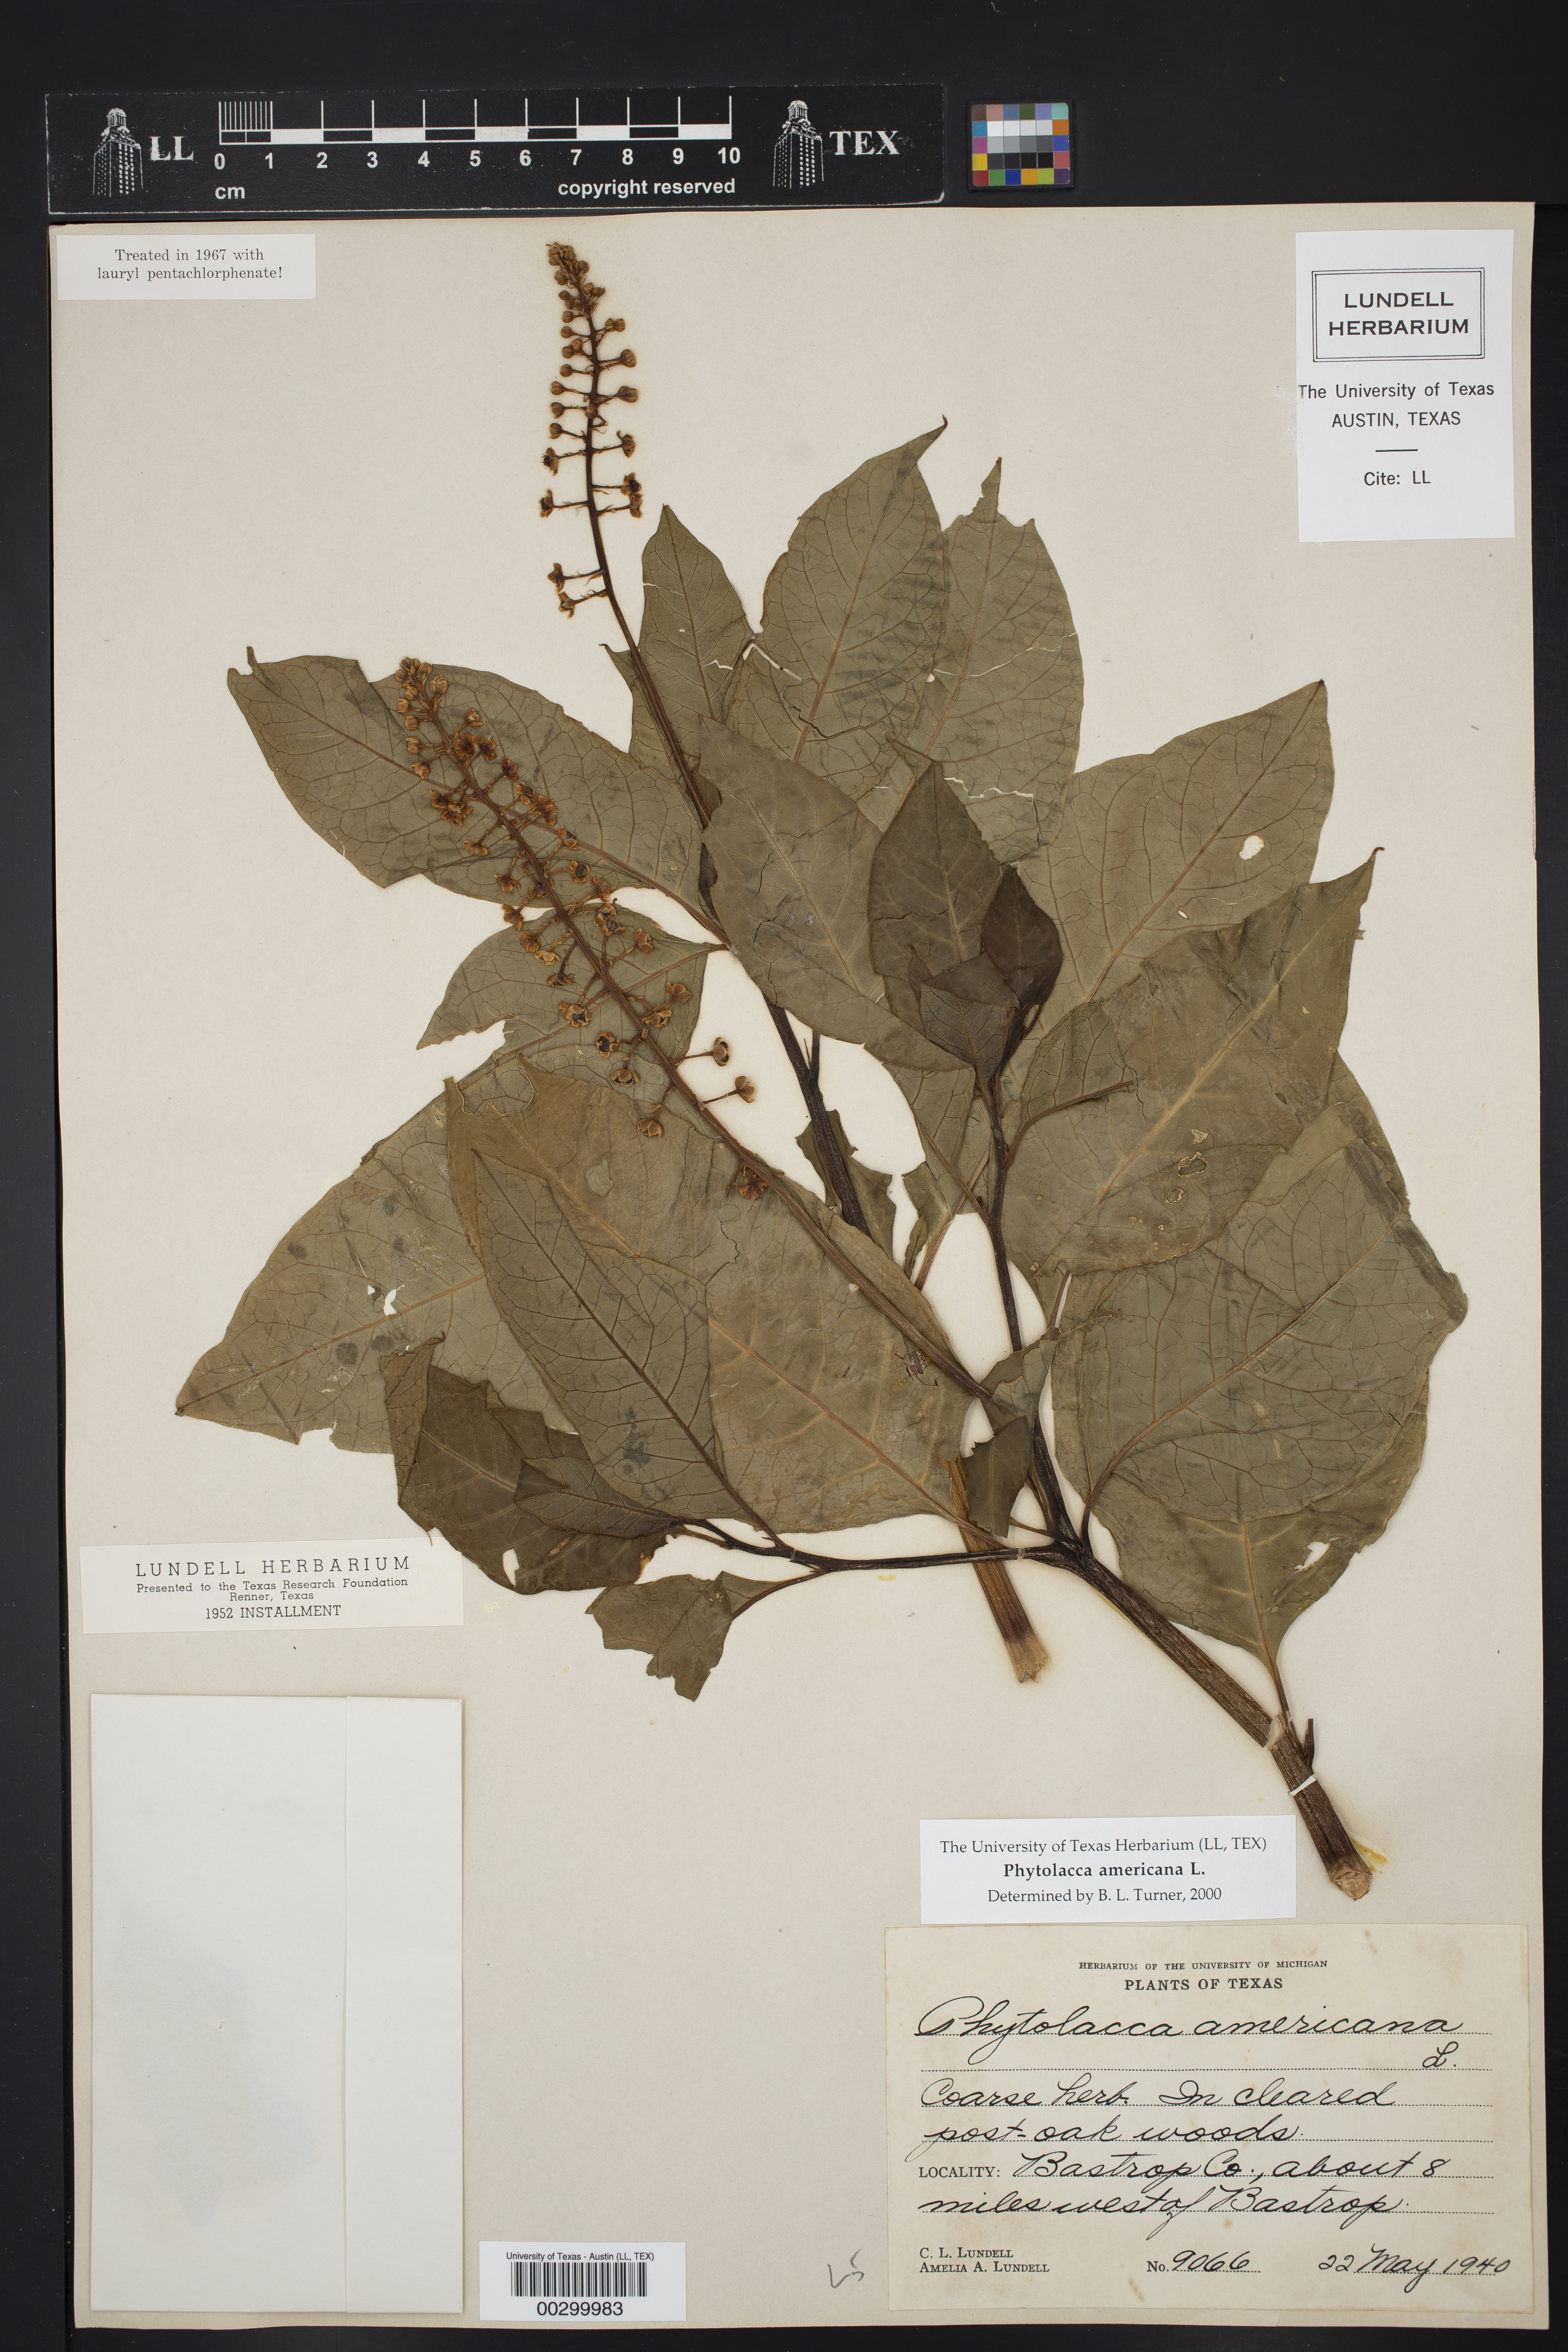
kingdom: Plantae
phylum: Tracheophyta
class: Magnoliopsida
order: Caryophyllales
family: Phytolaccaceae
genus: Phytolacca
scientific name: Phytolacca americana
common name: American pokeweed
